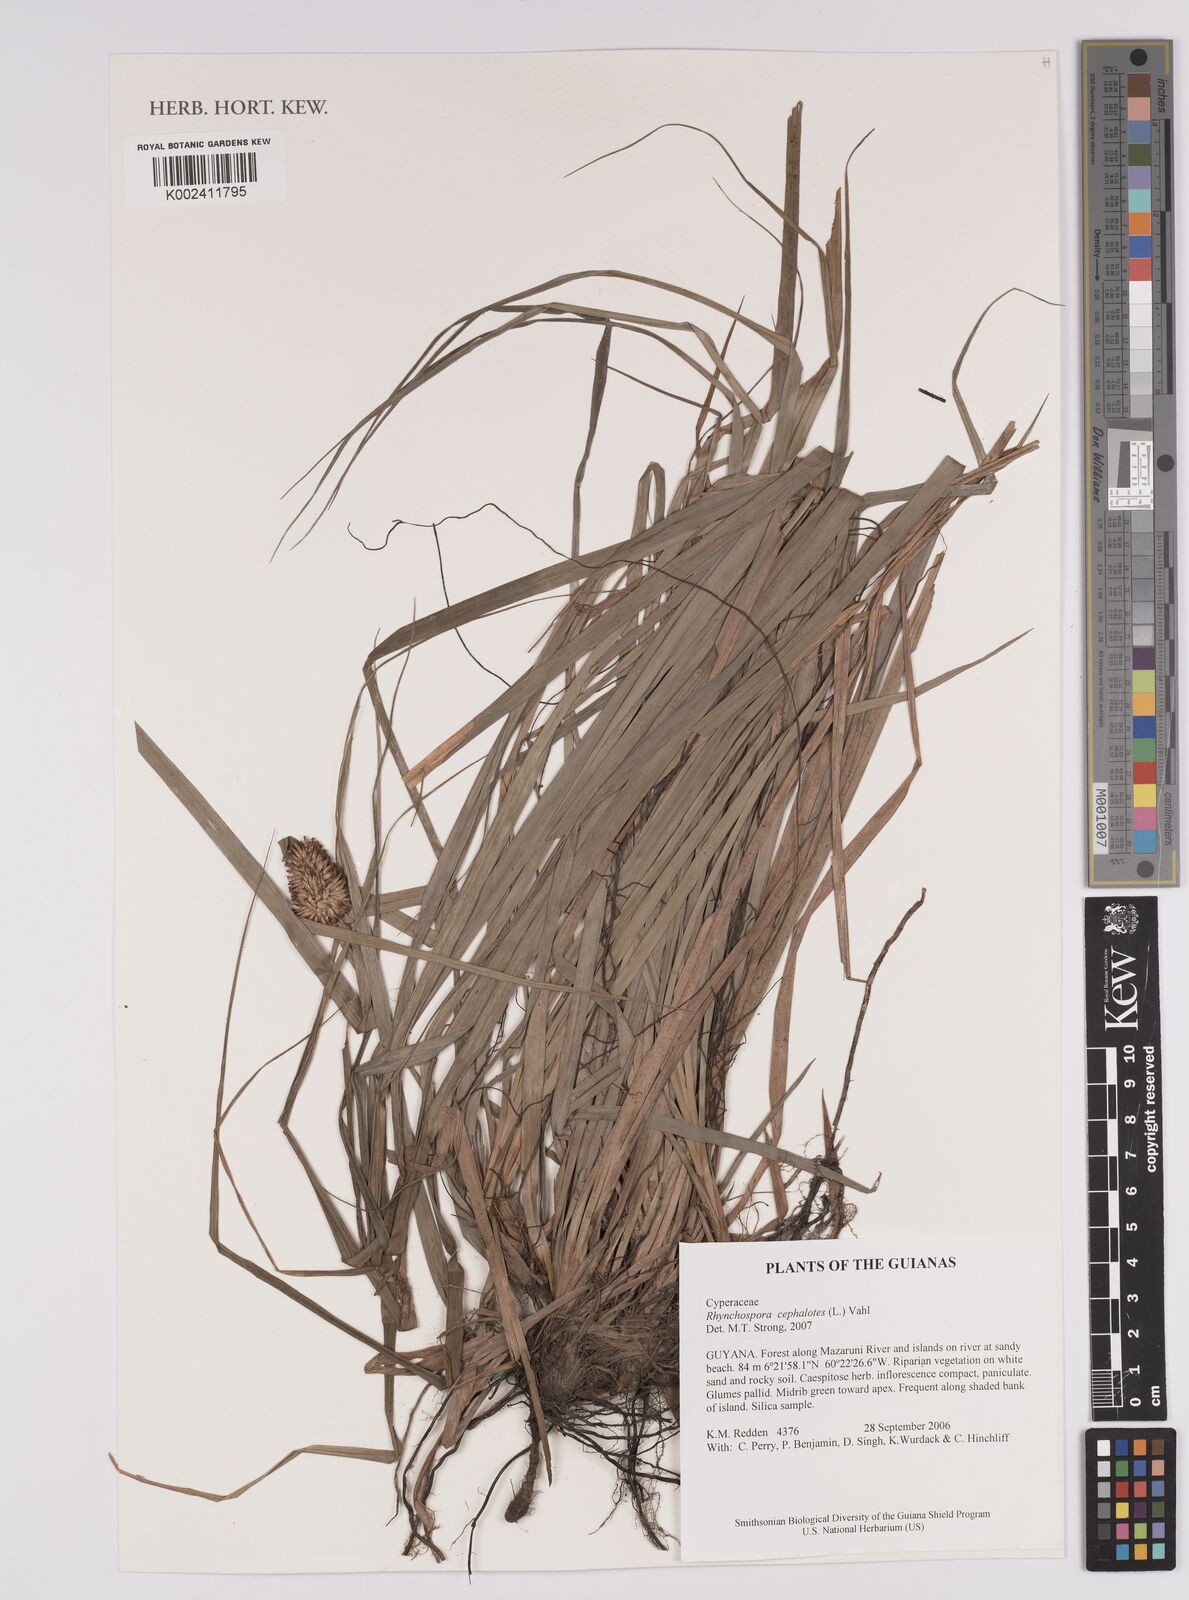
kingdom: Plantae
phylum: Tracheophyta
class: Liliopsida
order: Poales
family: Cyperaceae
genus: Rhynchospora
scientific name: Rhynchospora cephalotes
